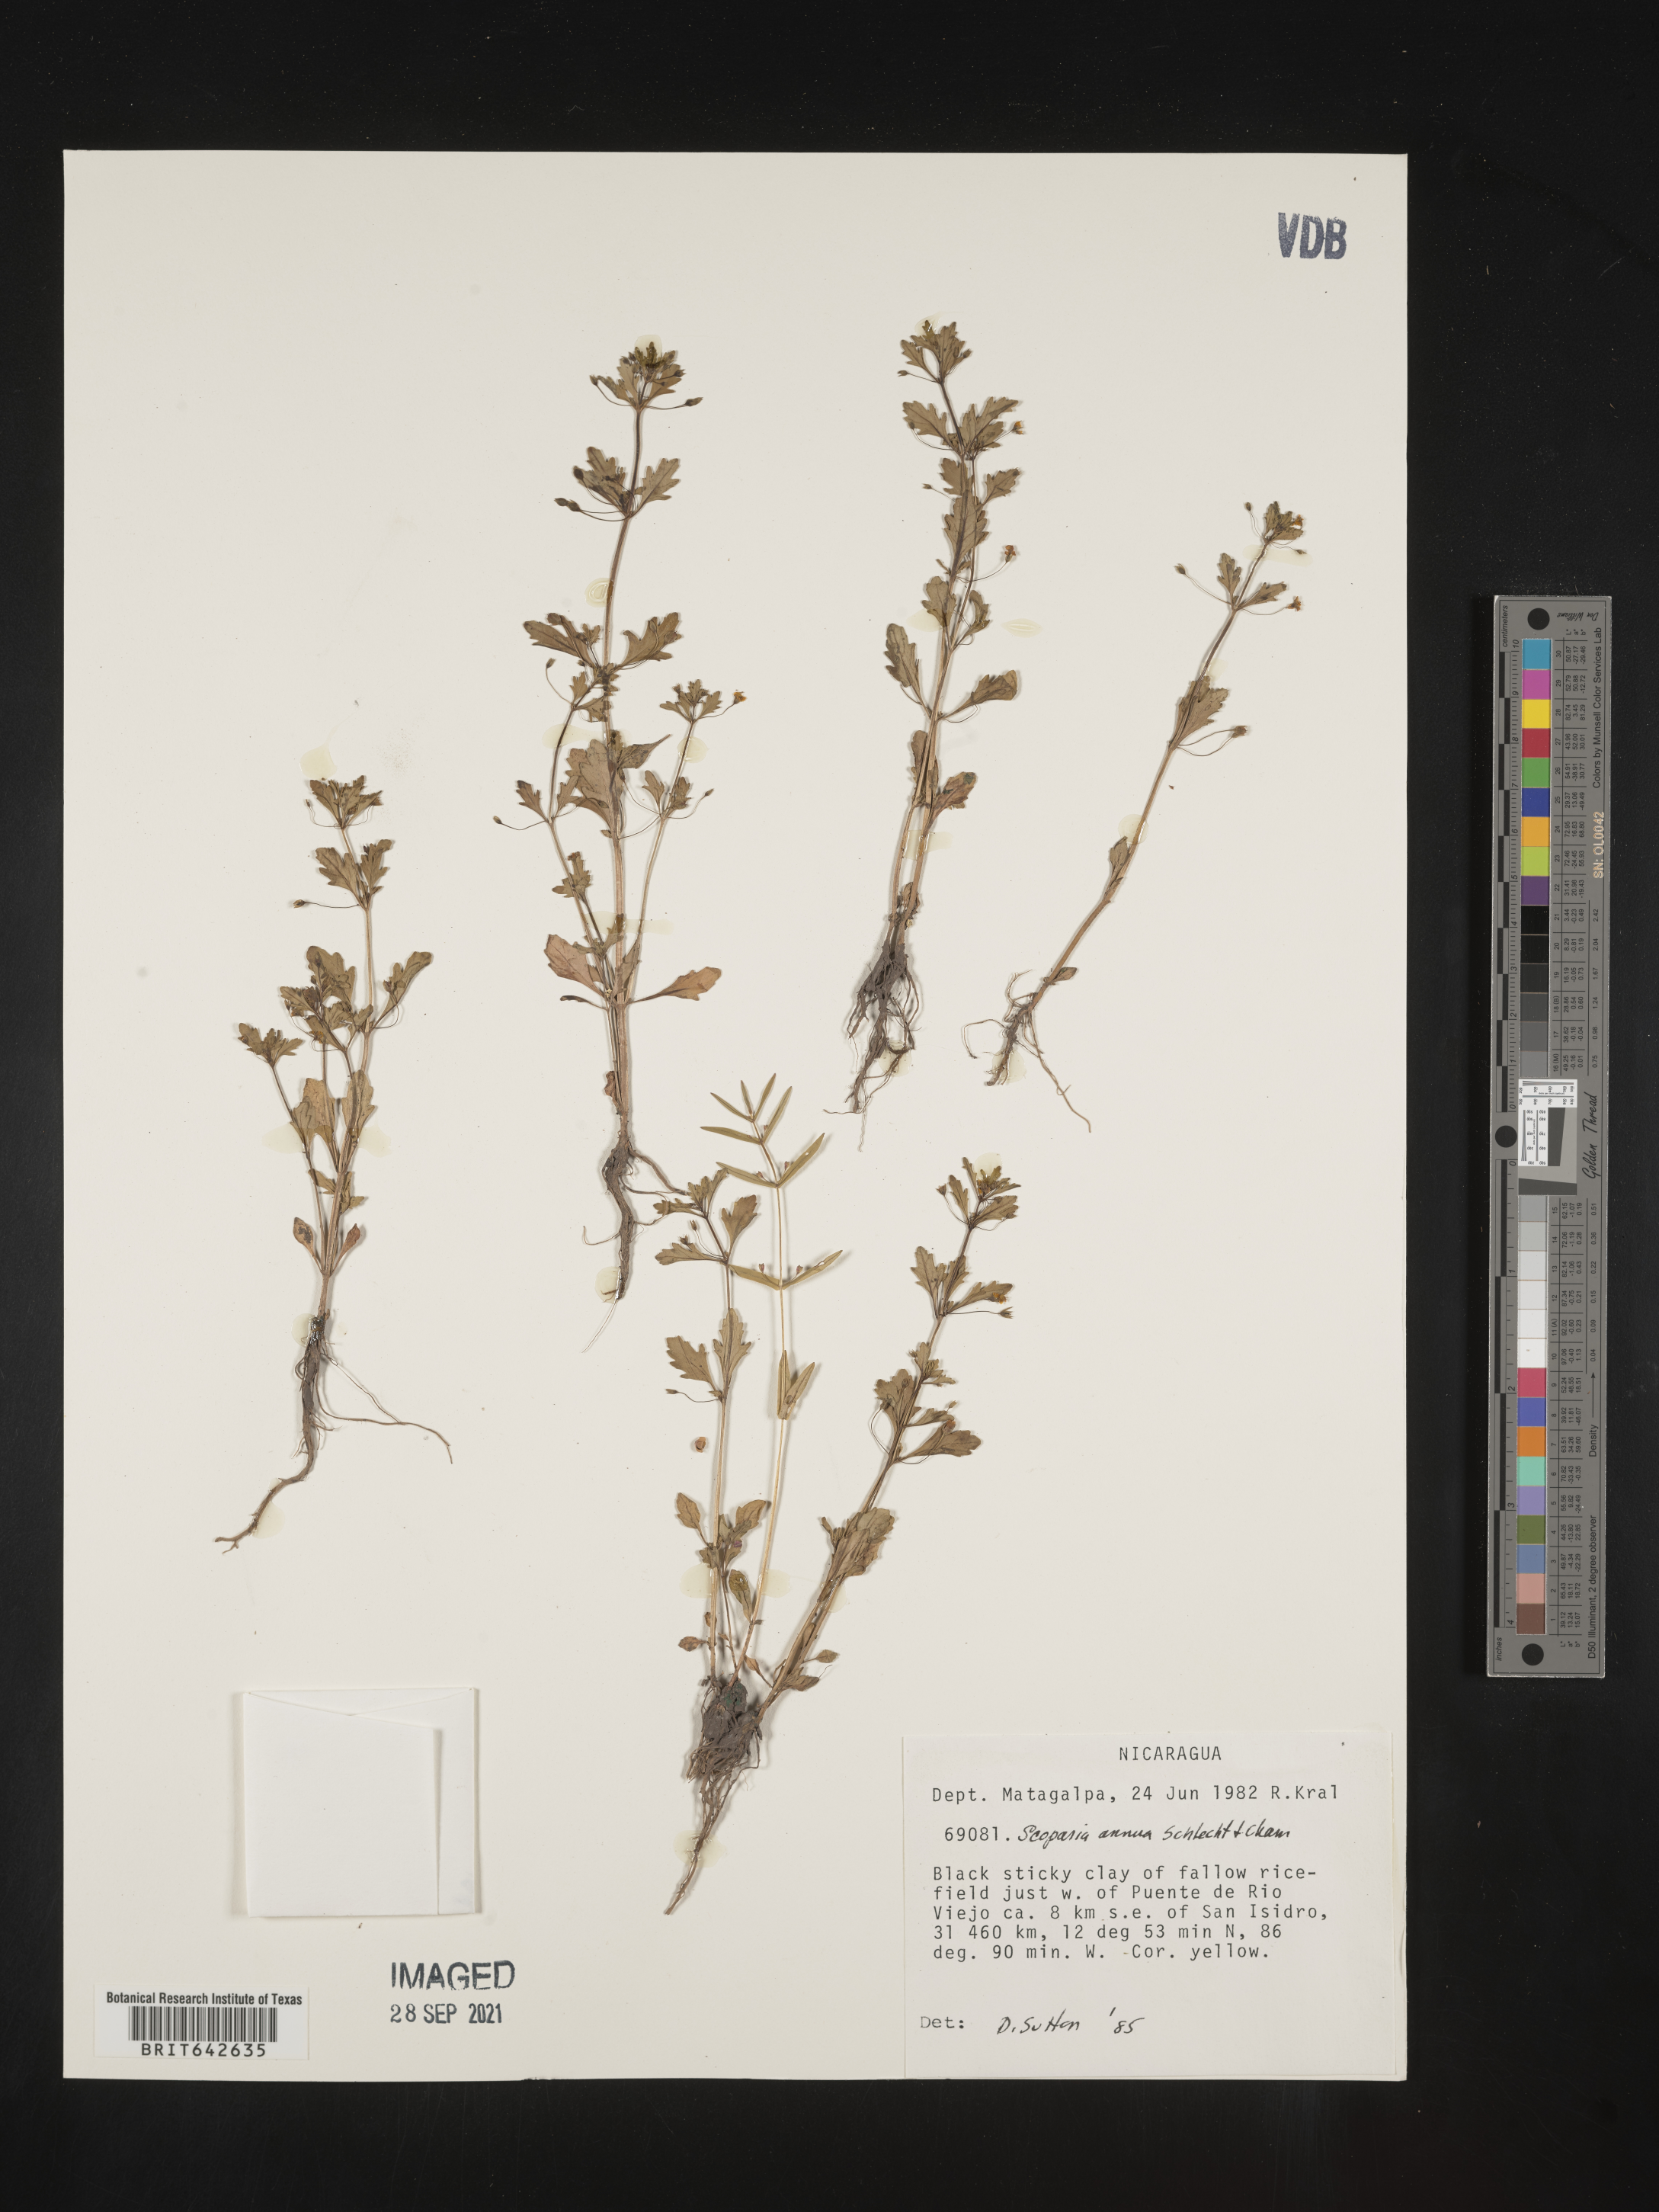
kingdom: Plantae
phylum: Tracheophyta
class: Magnoliopsida
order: Lamiales
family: Plantaginaceae
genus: Scoparia
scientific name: Scoparia
